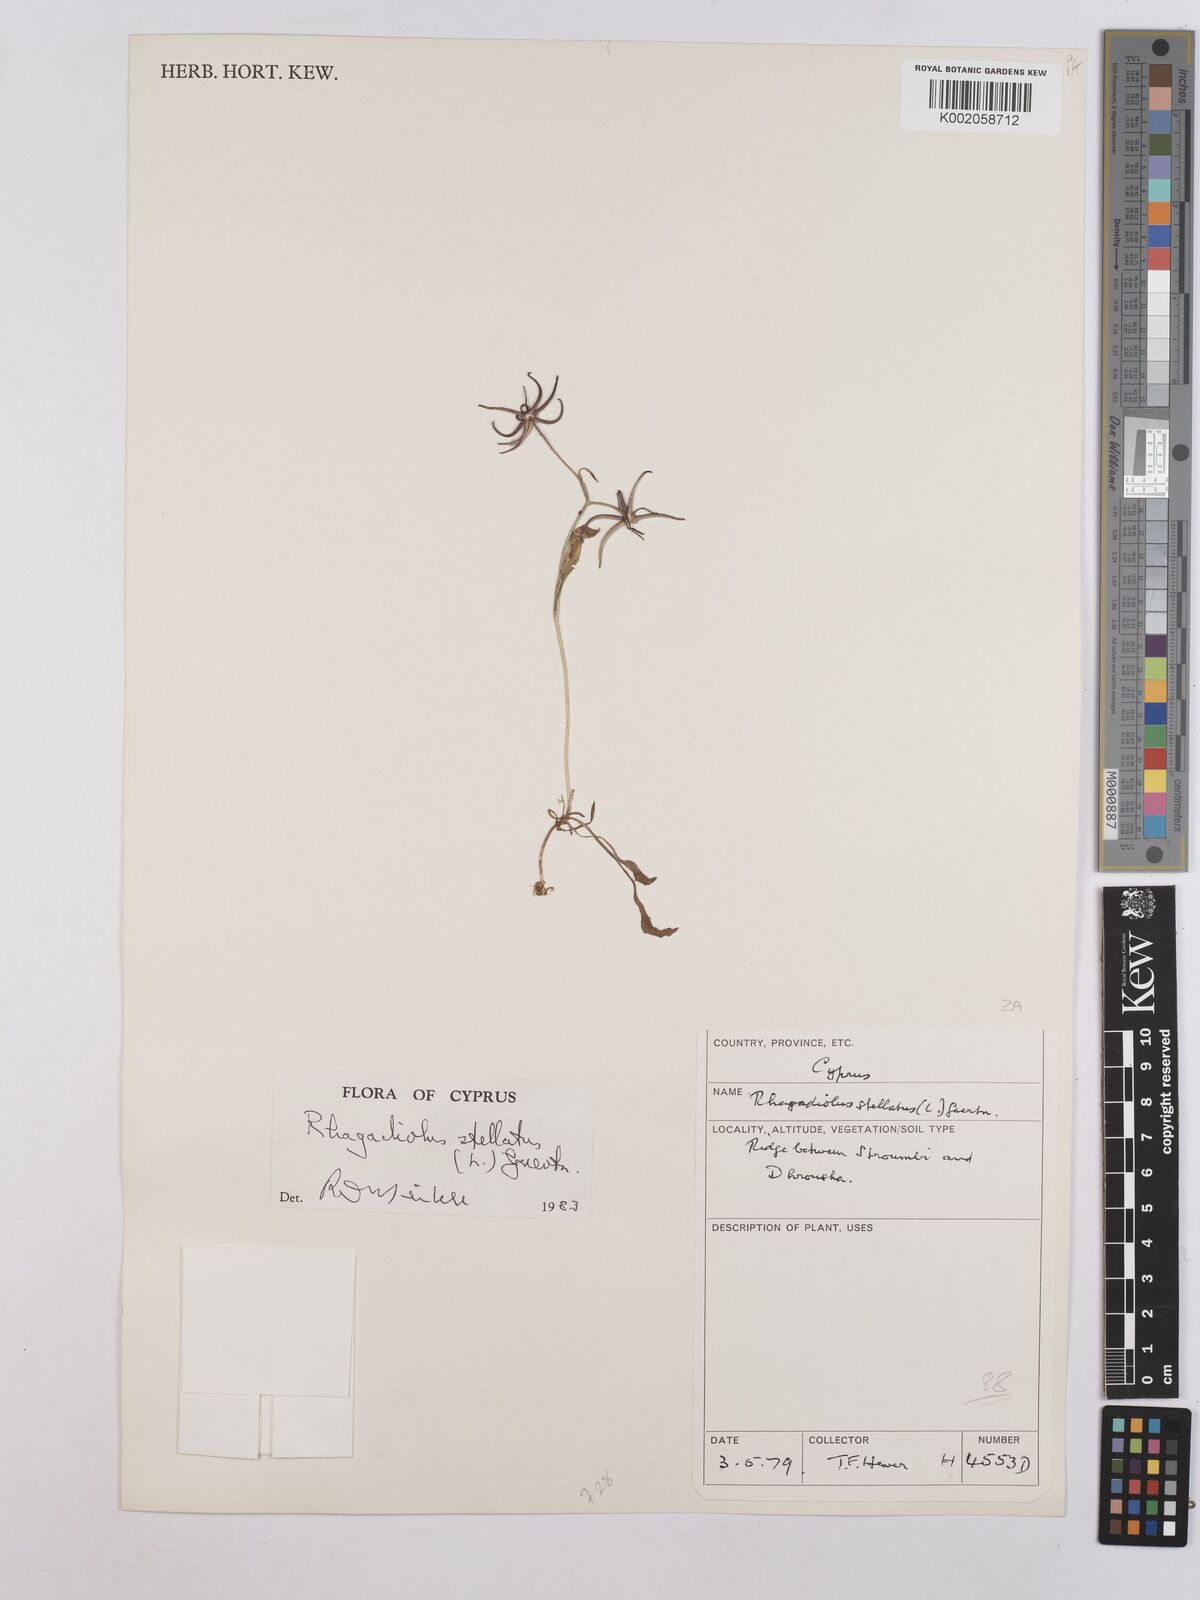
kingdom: Plantae
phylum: Tracheophyta
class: Magnoliopsida
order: Asterales
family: Asteraceae
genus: Rhagadiolus
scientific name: Rhagadiolus stellatus
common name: Star hawkbit
